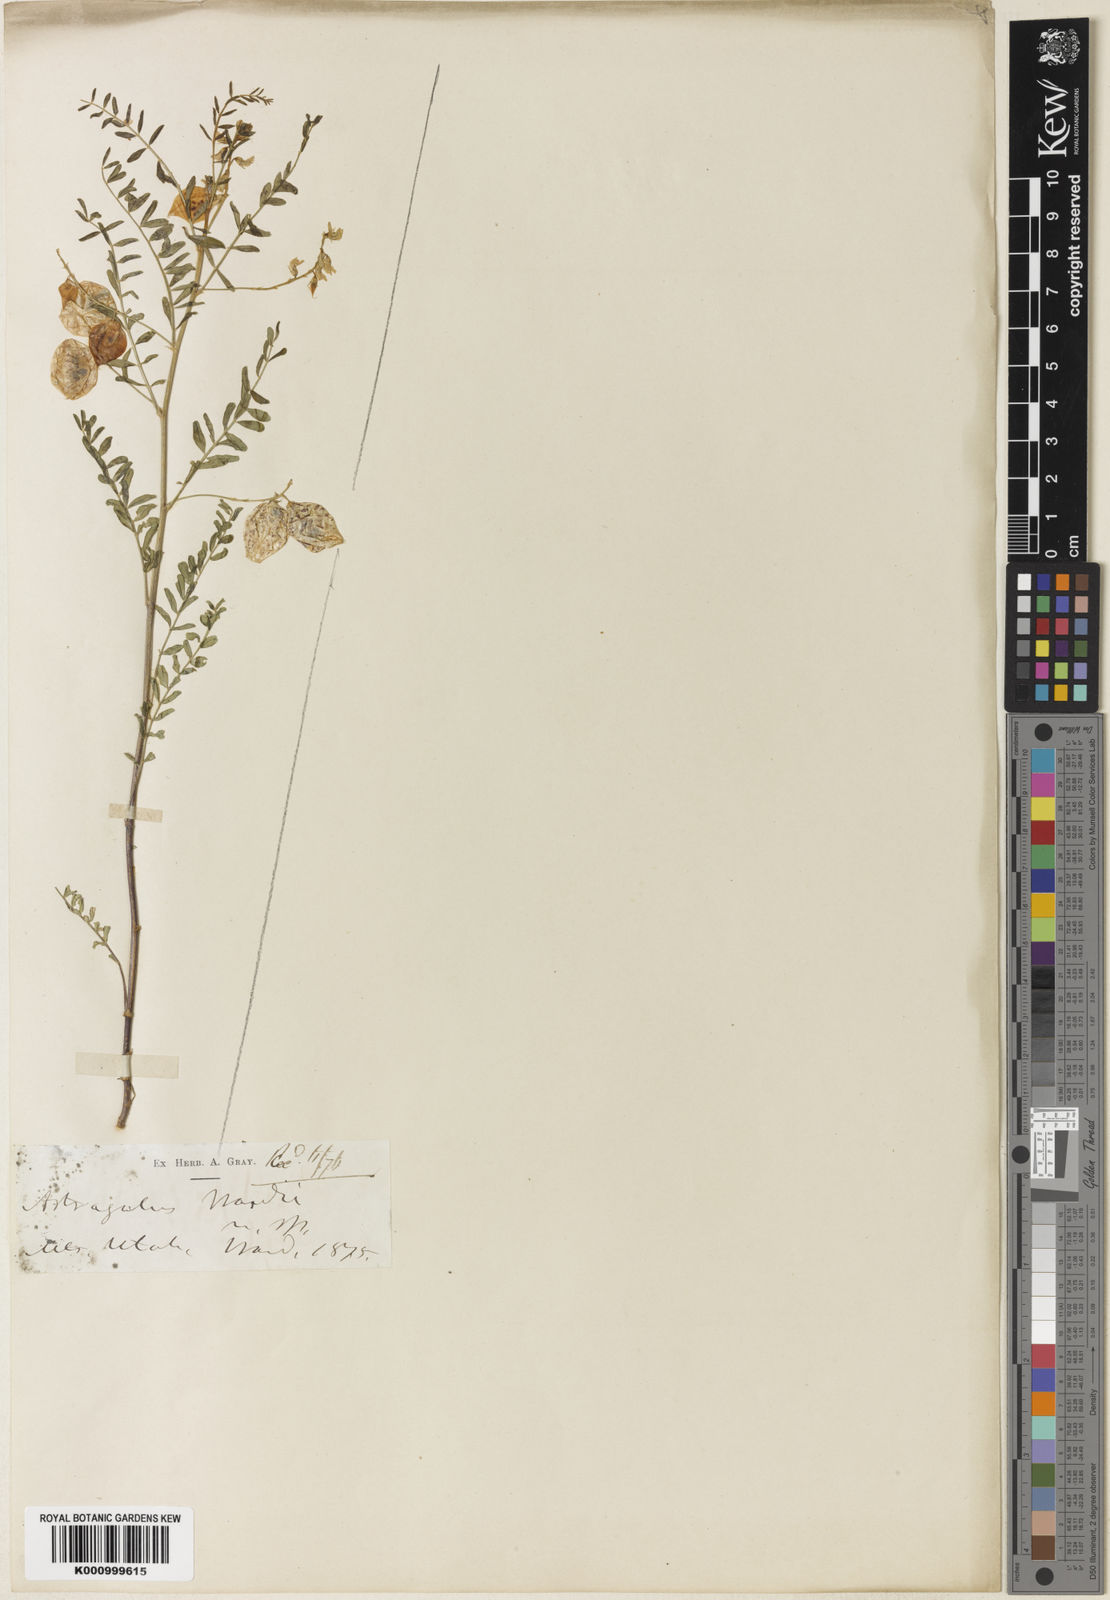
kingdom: Plantae
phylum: Tracheophyta
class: Magnoliopsida
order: Fabales
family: Fabaceae
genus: Astragalus
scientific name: Astragalus wardii
